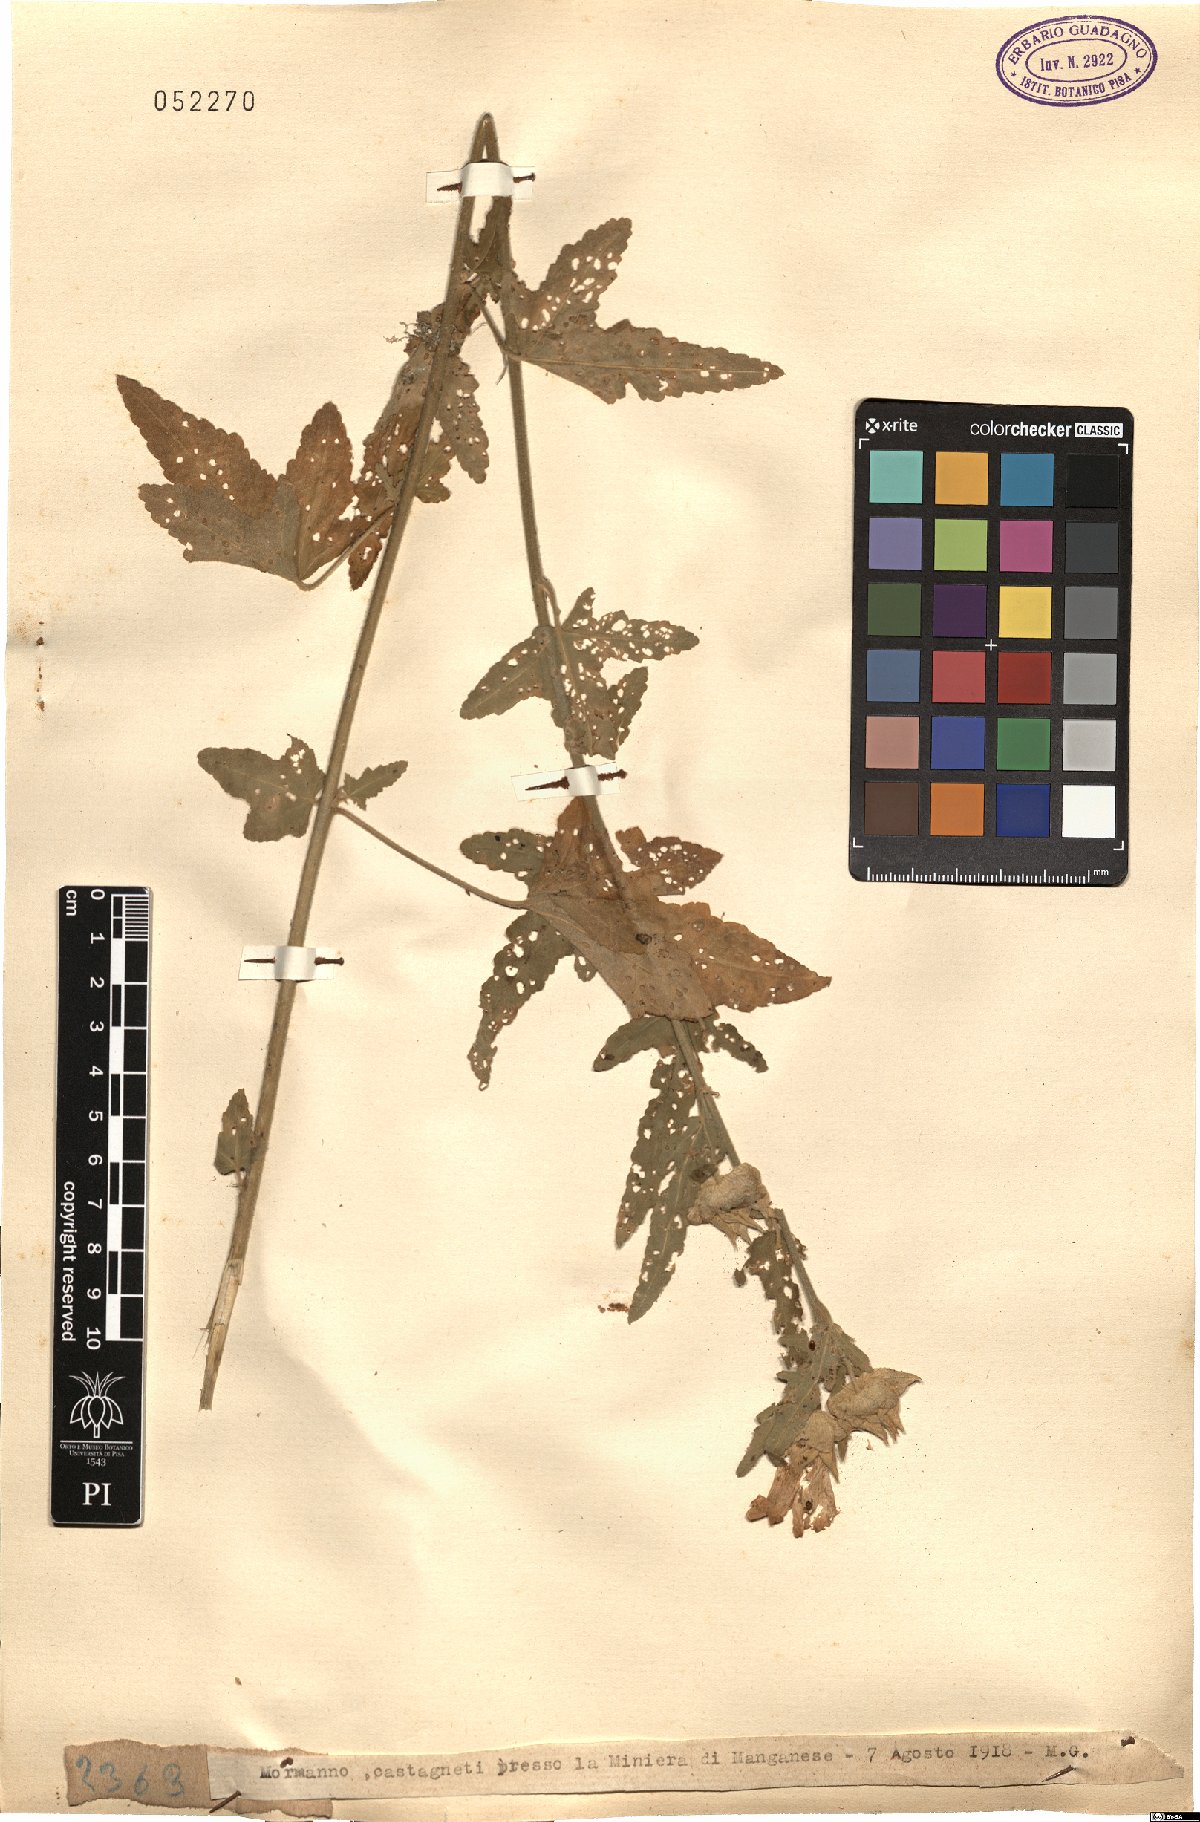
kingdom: Plantae
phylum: Tracheophyta
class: Magnoliopsida
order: Malvales
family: Malvaceae
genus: Malva
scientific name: Malva
